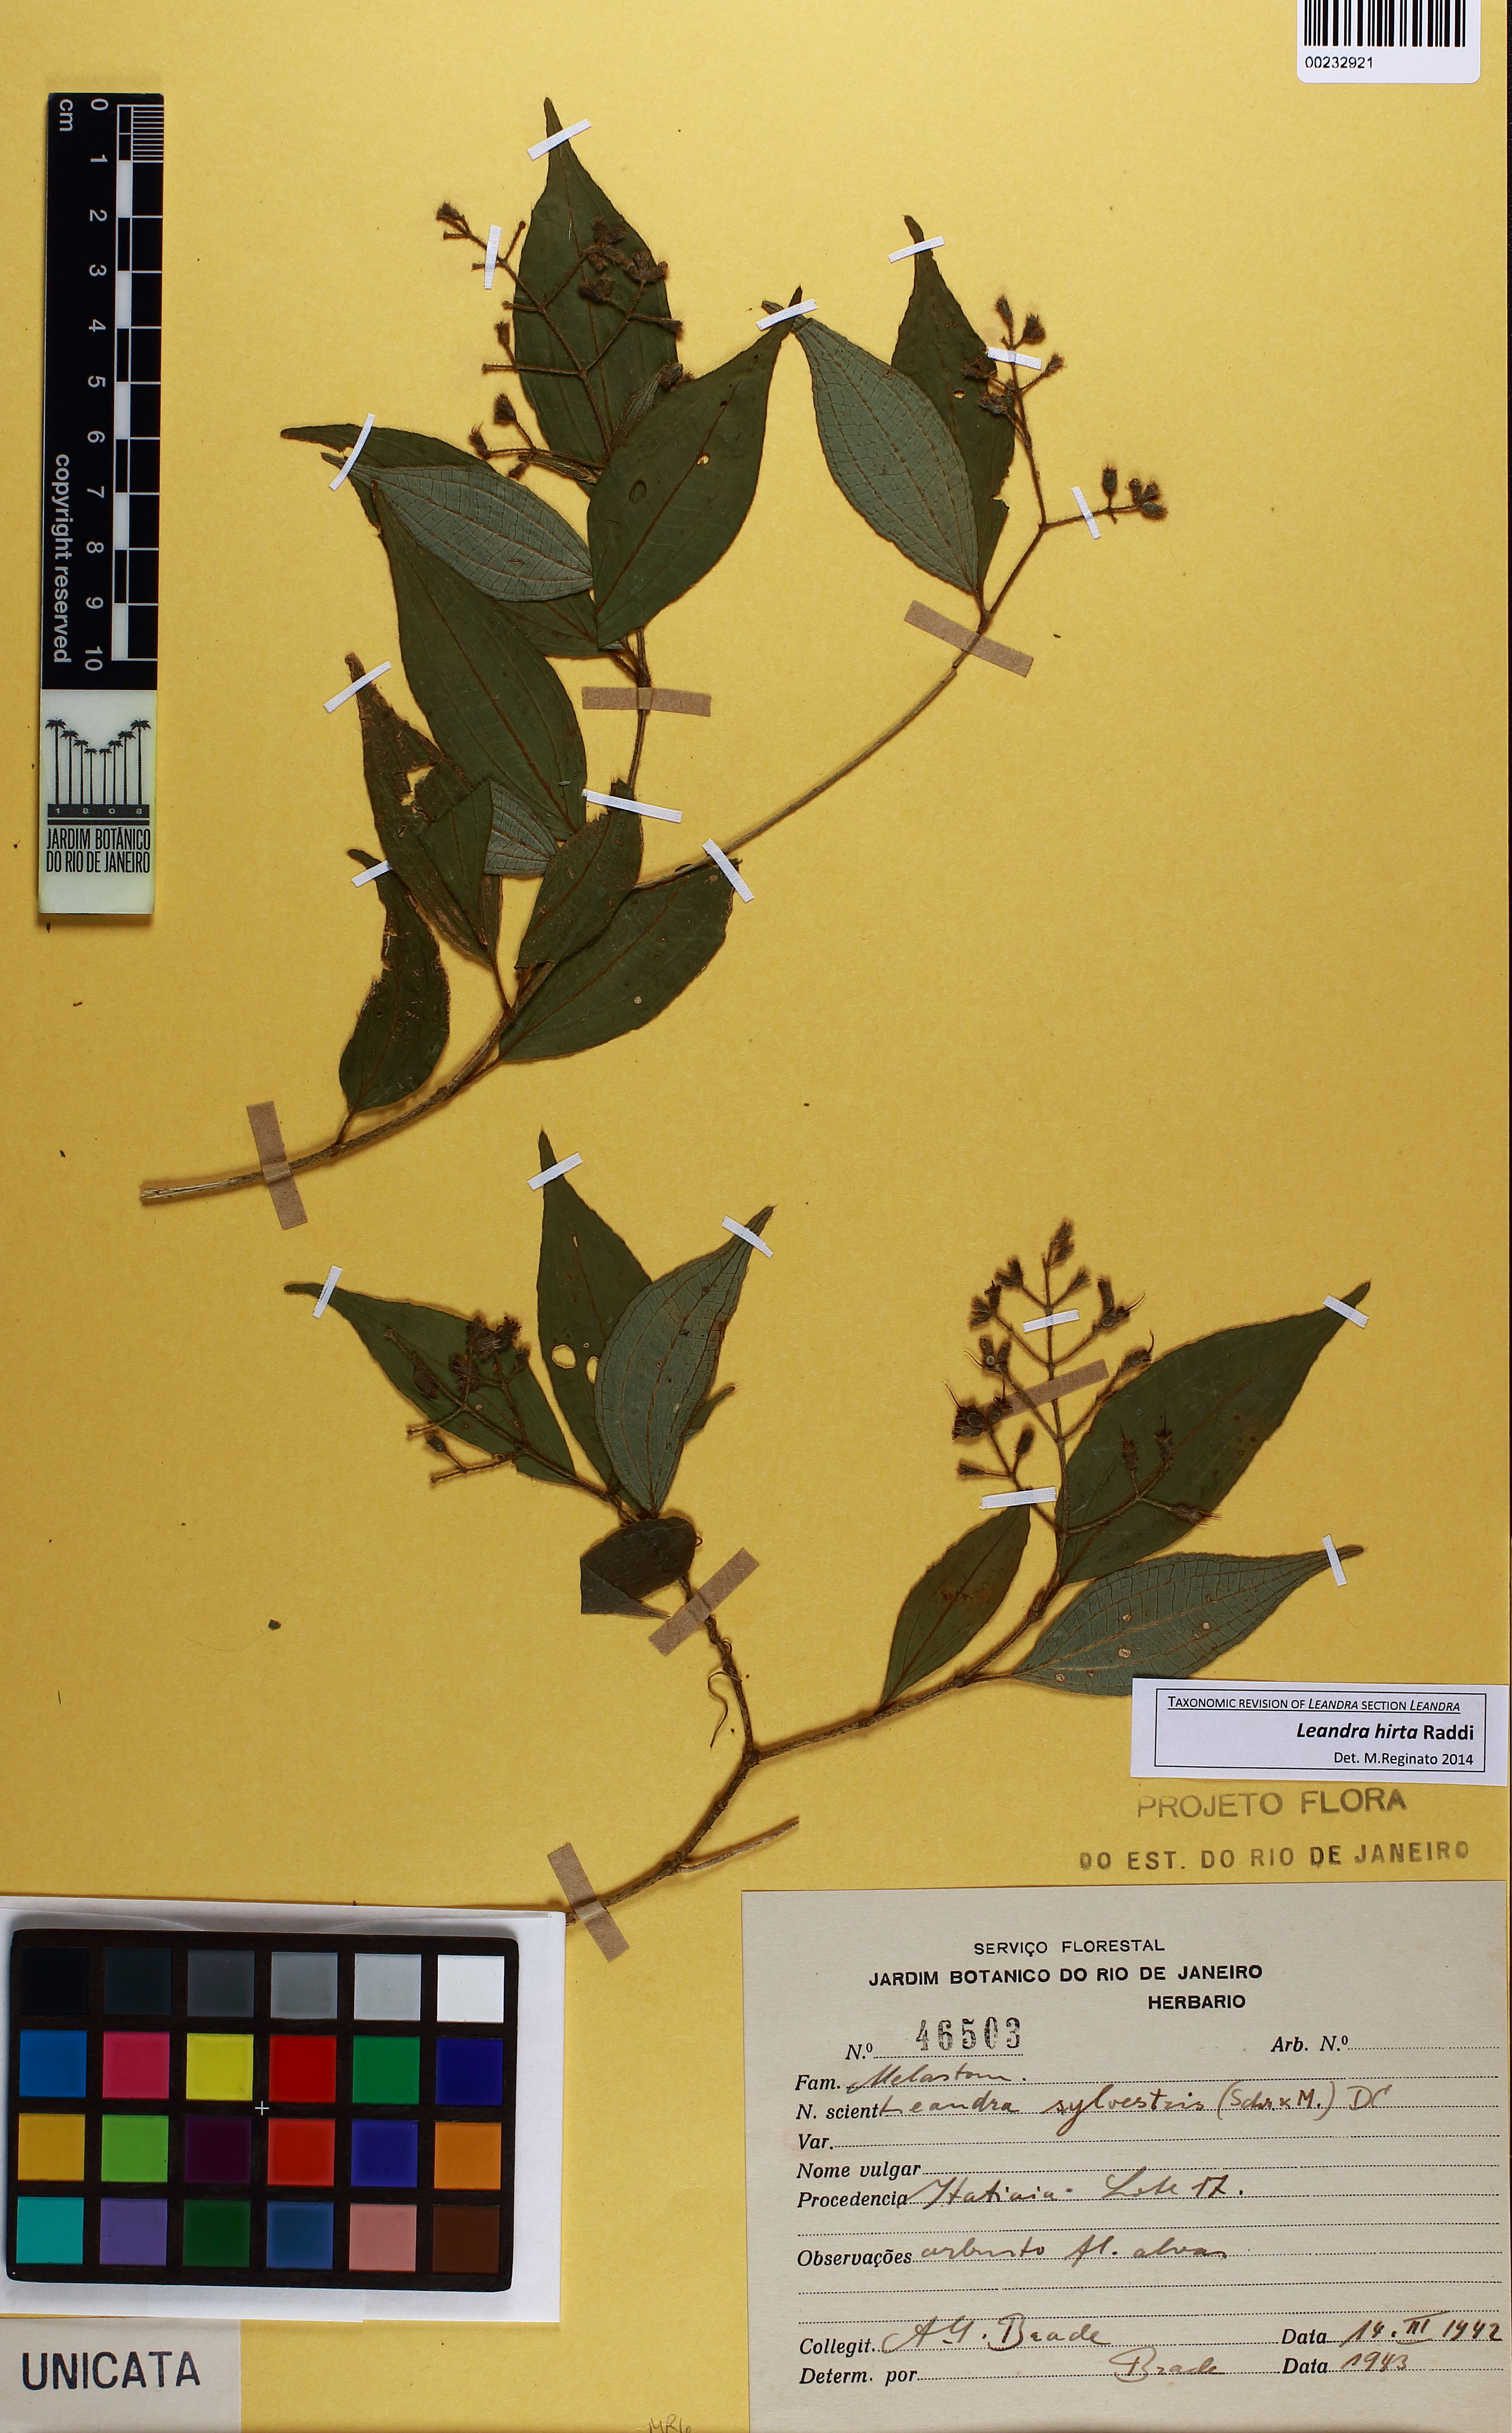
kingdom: Plantae
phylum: Tracheophyta
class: Magnoliopsida
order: Myrtales
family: Melastomataceae
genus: Miconia
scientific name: Miconia dubia
